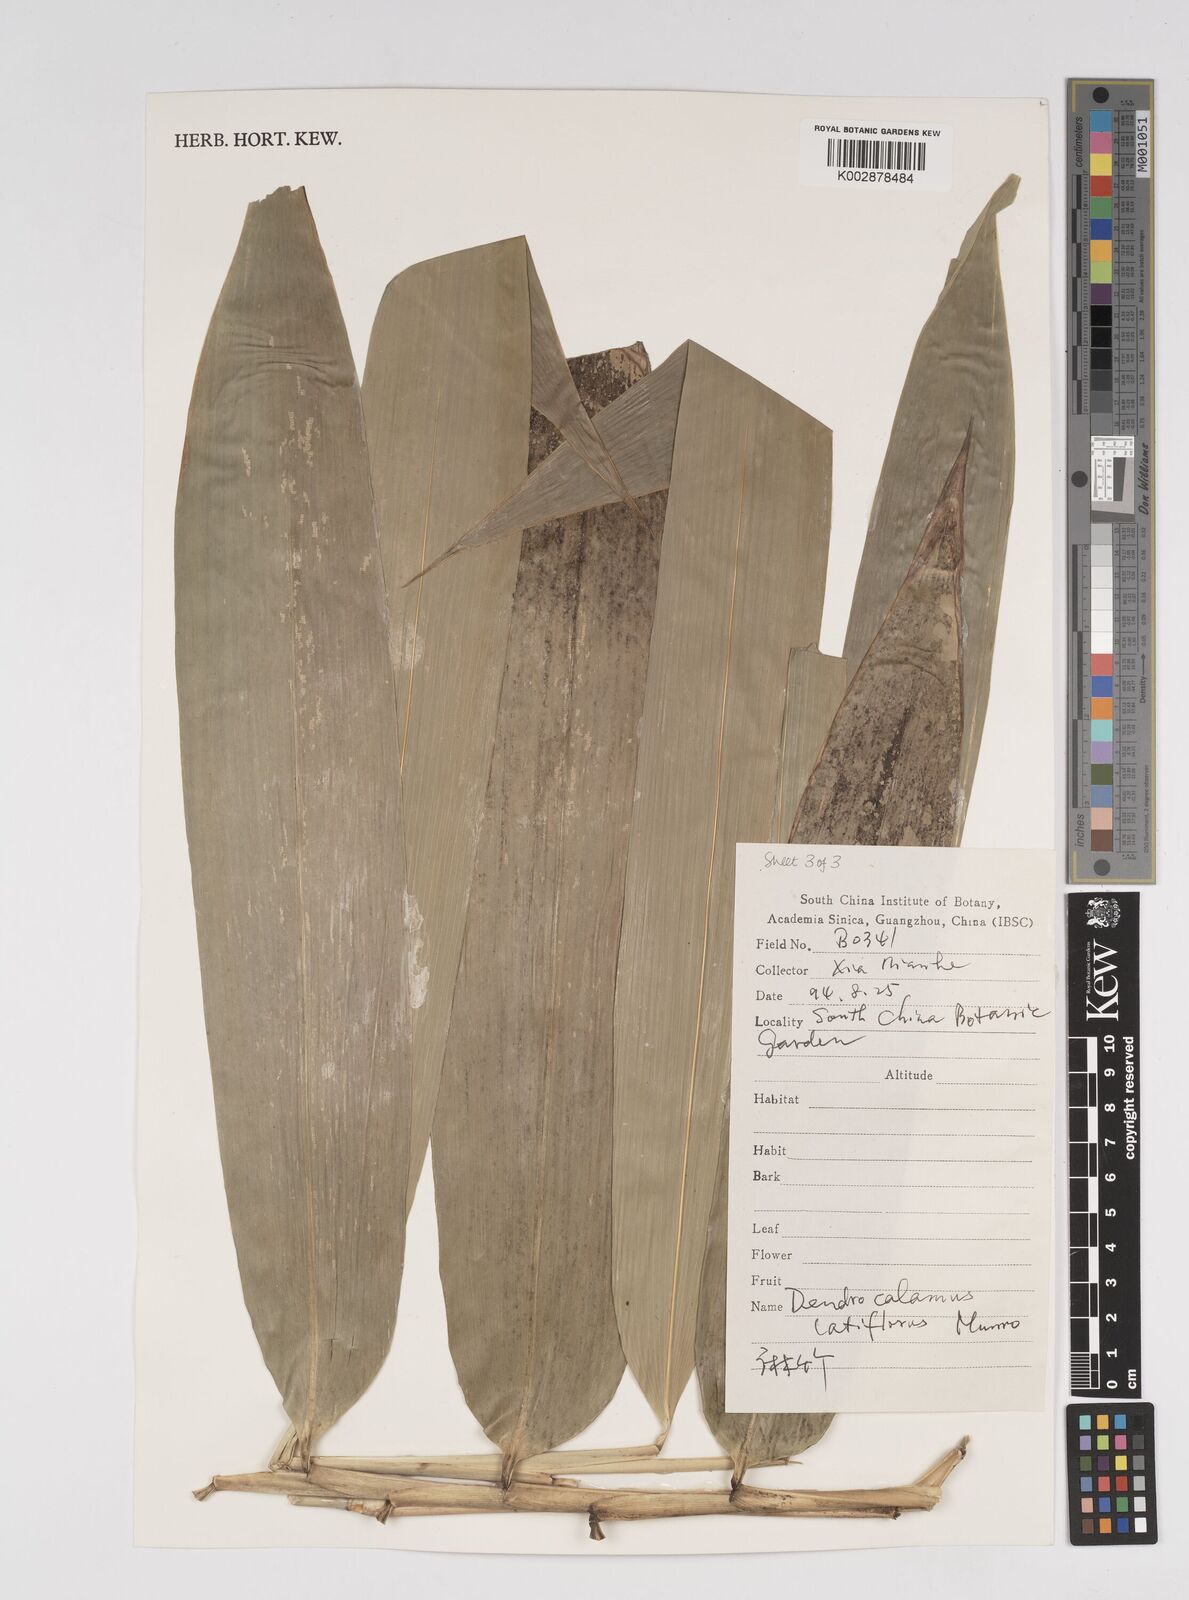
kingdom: Plantae
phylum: Tracheophyta
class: Liliopsida
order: Poales
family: Poaceae
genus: Dendrocalamus
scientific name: Dendrocalamus latiflorus
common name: Giant bamboo
